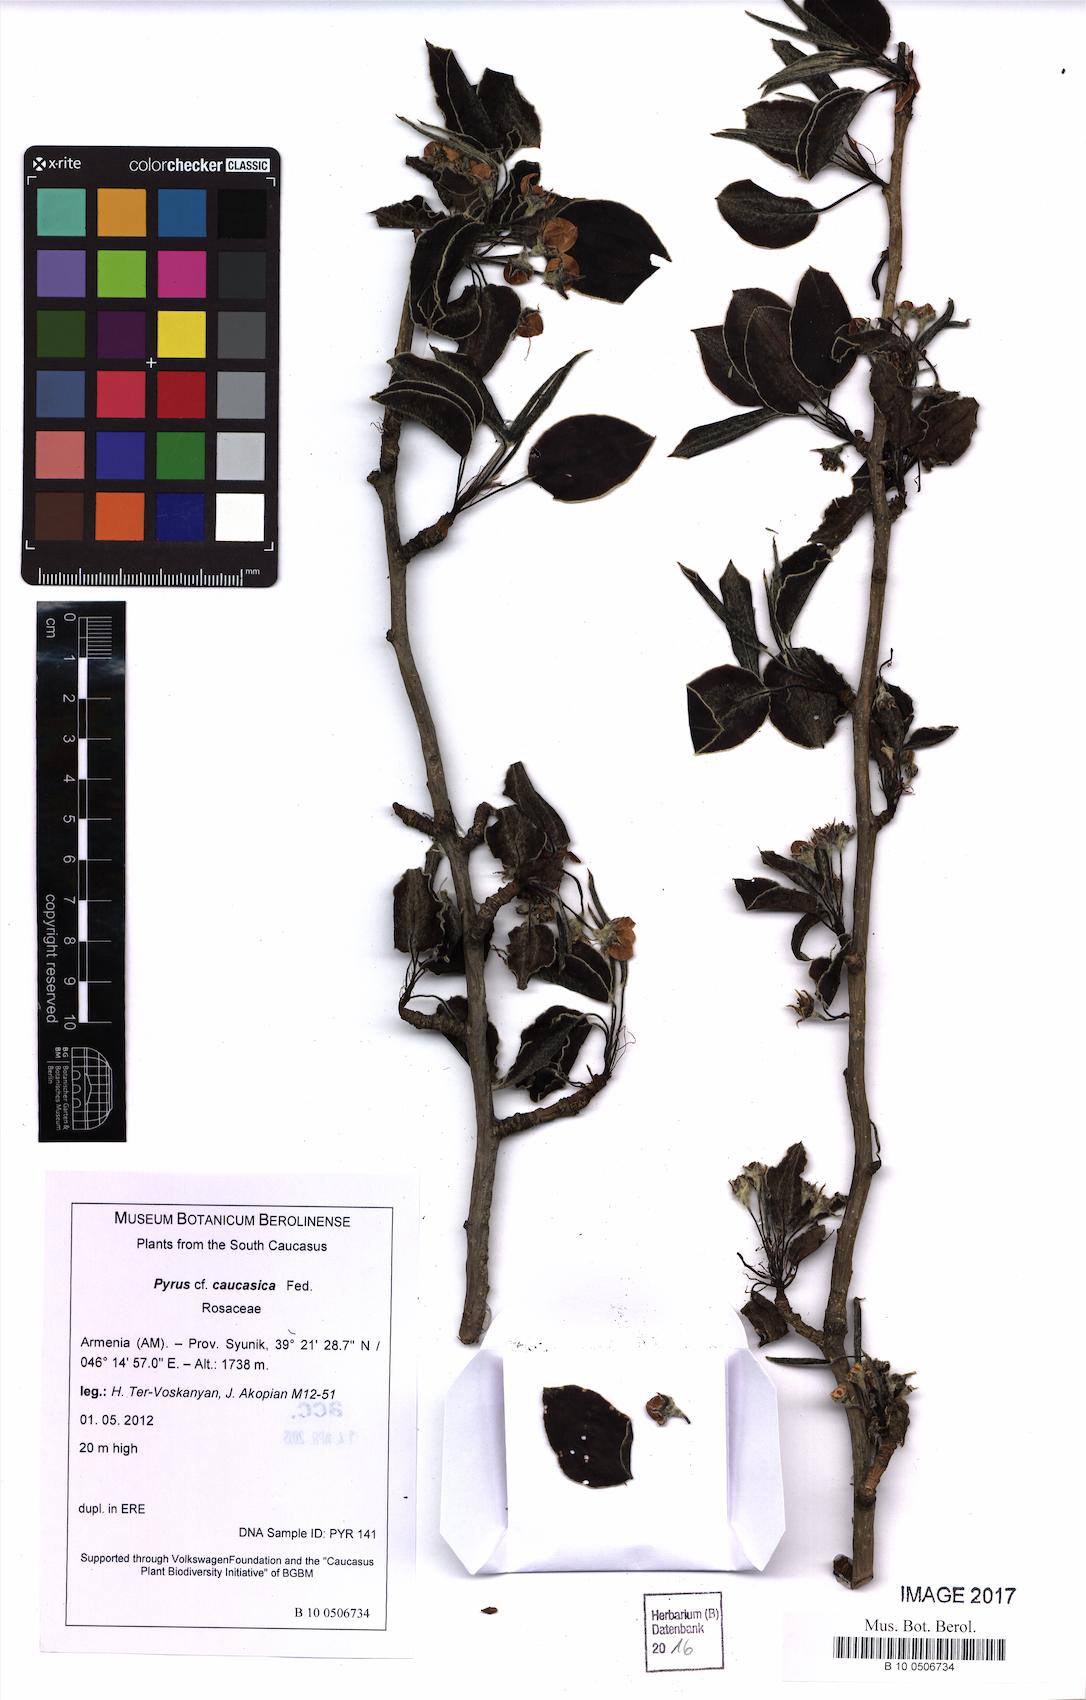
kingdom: Plantae
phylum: Tracheophyta
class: Magnoliopsida
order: Rosales
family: Rosaceae
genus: Pyrus
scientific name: Pyrus communis
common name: Pear
